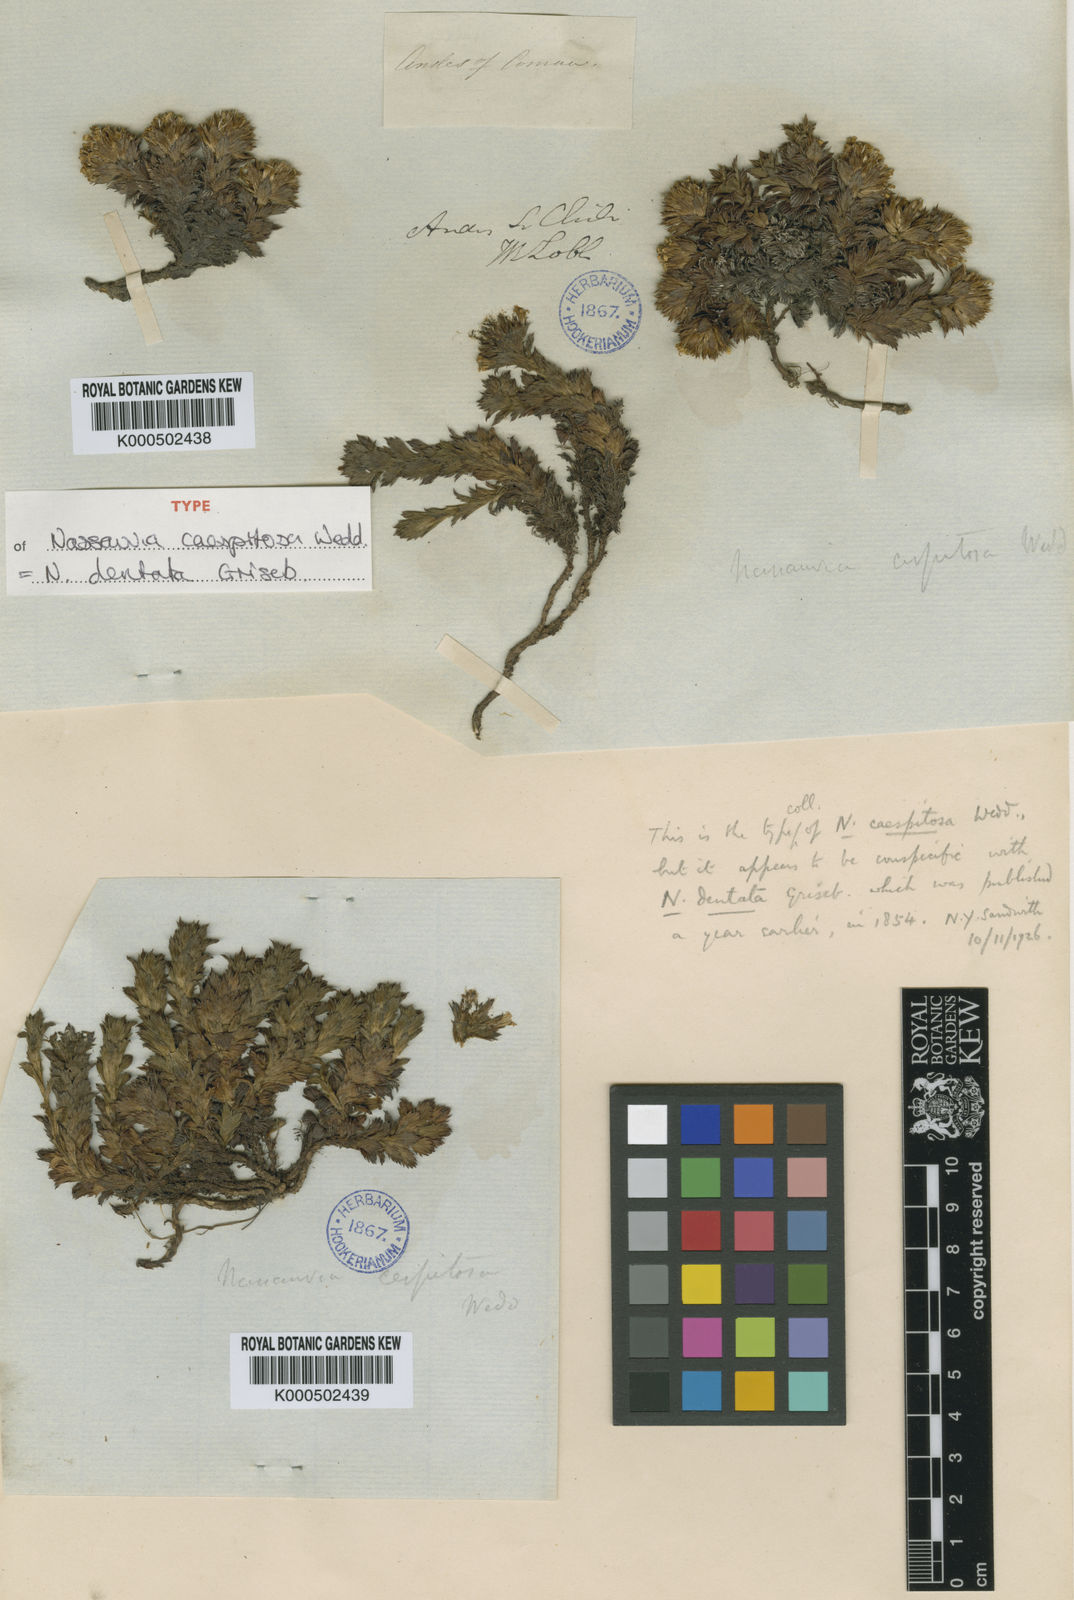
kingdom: Plantae
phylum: Tracheophyta
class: Magnoliopsida
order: Asterales
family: Asteraceae
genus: Nassauvia
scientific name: Nassauvia dentata
